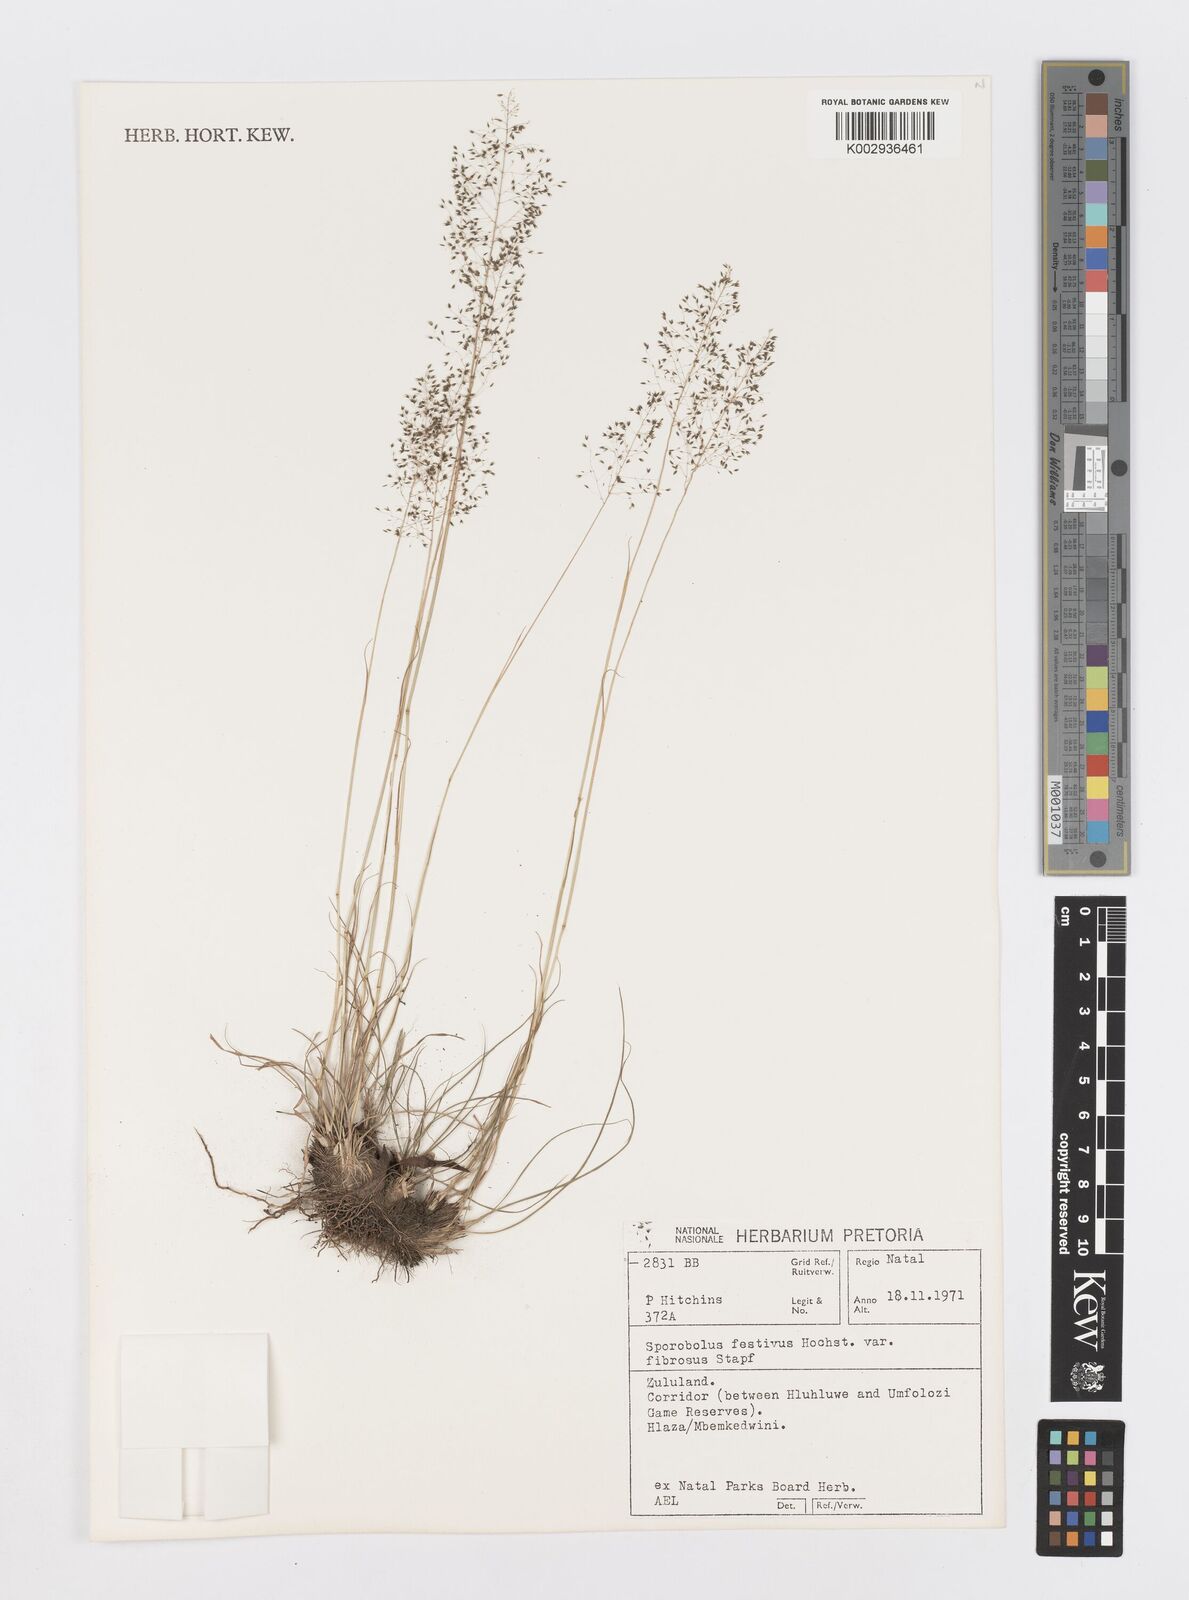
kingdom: Plantae
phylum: Tracheophyta
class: Liliopsida
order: Poales
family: Poaceae
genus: Sporobolus
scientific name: Sporobolus festivus
